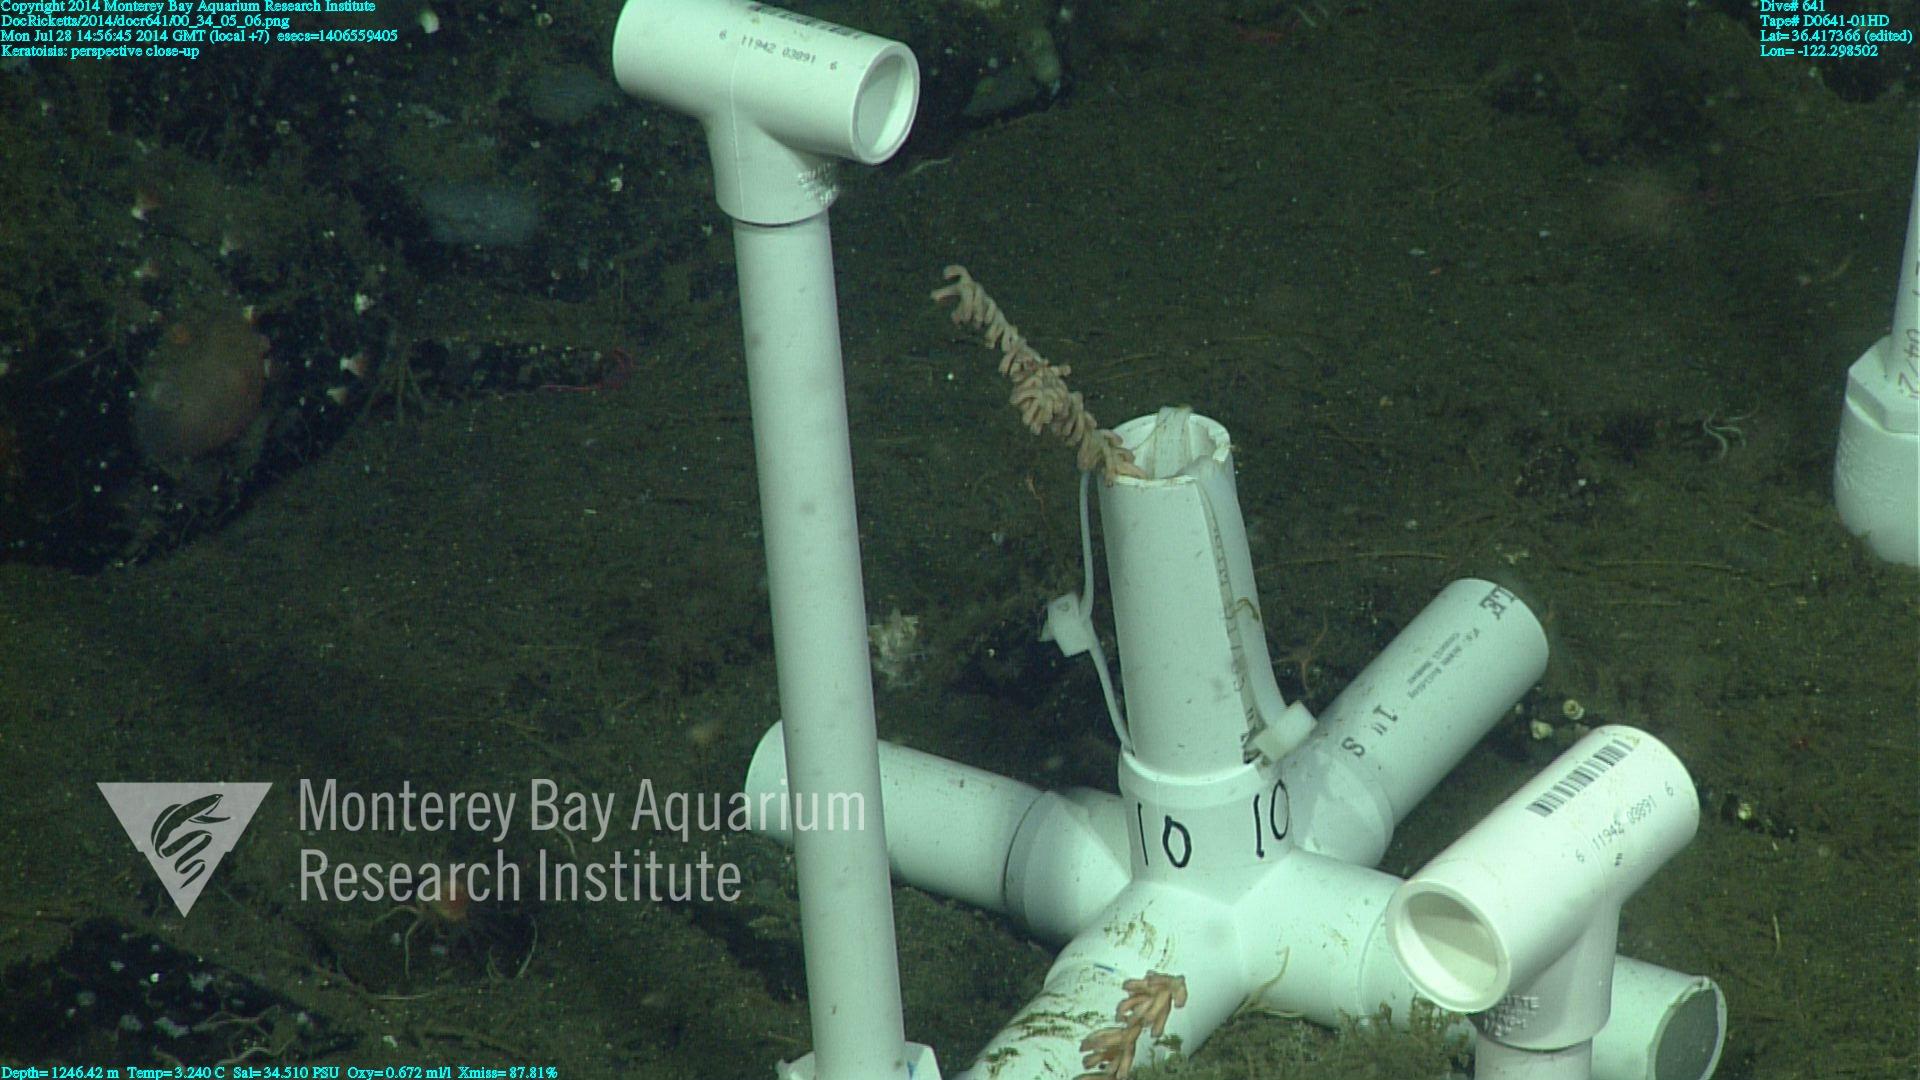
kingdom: Animalia
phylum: Cnidaria
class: Anthozoa
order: Scleralcyonacea
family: Keratoisididae
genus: Keratoisis
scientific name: Keratoisis
